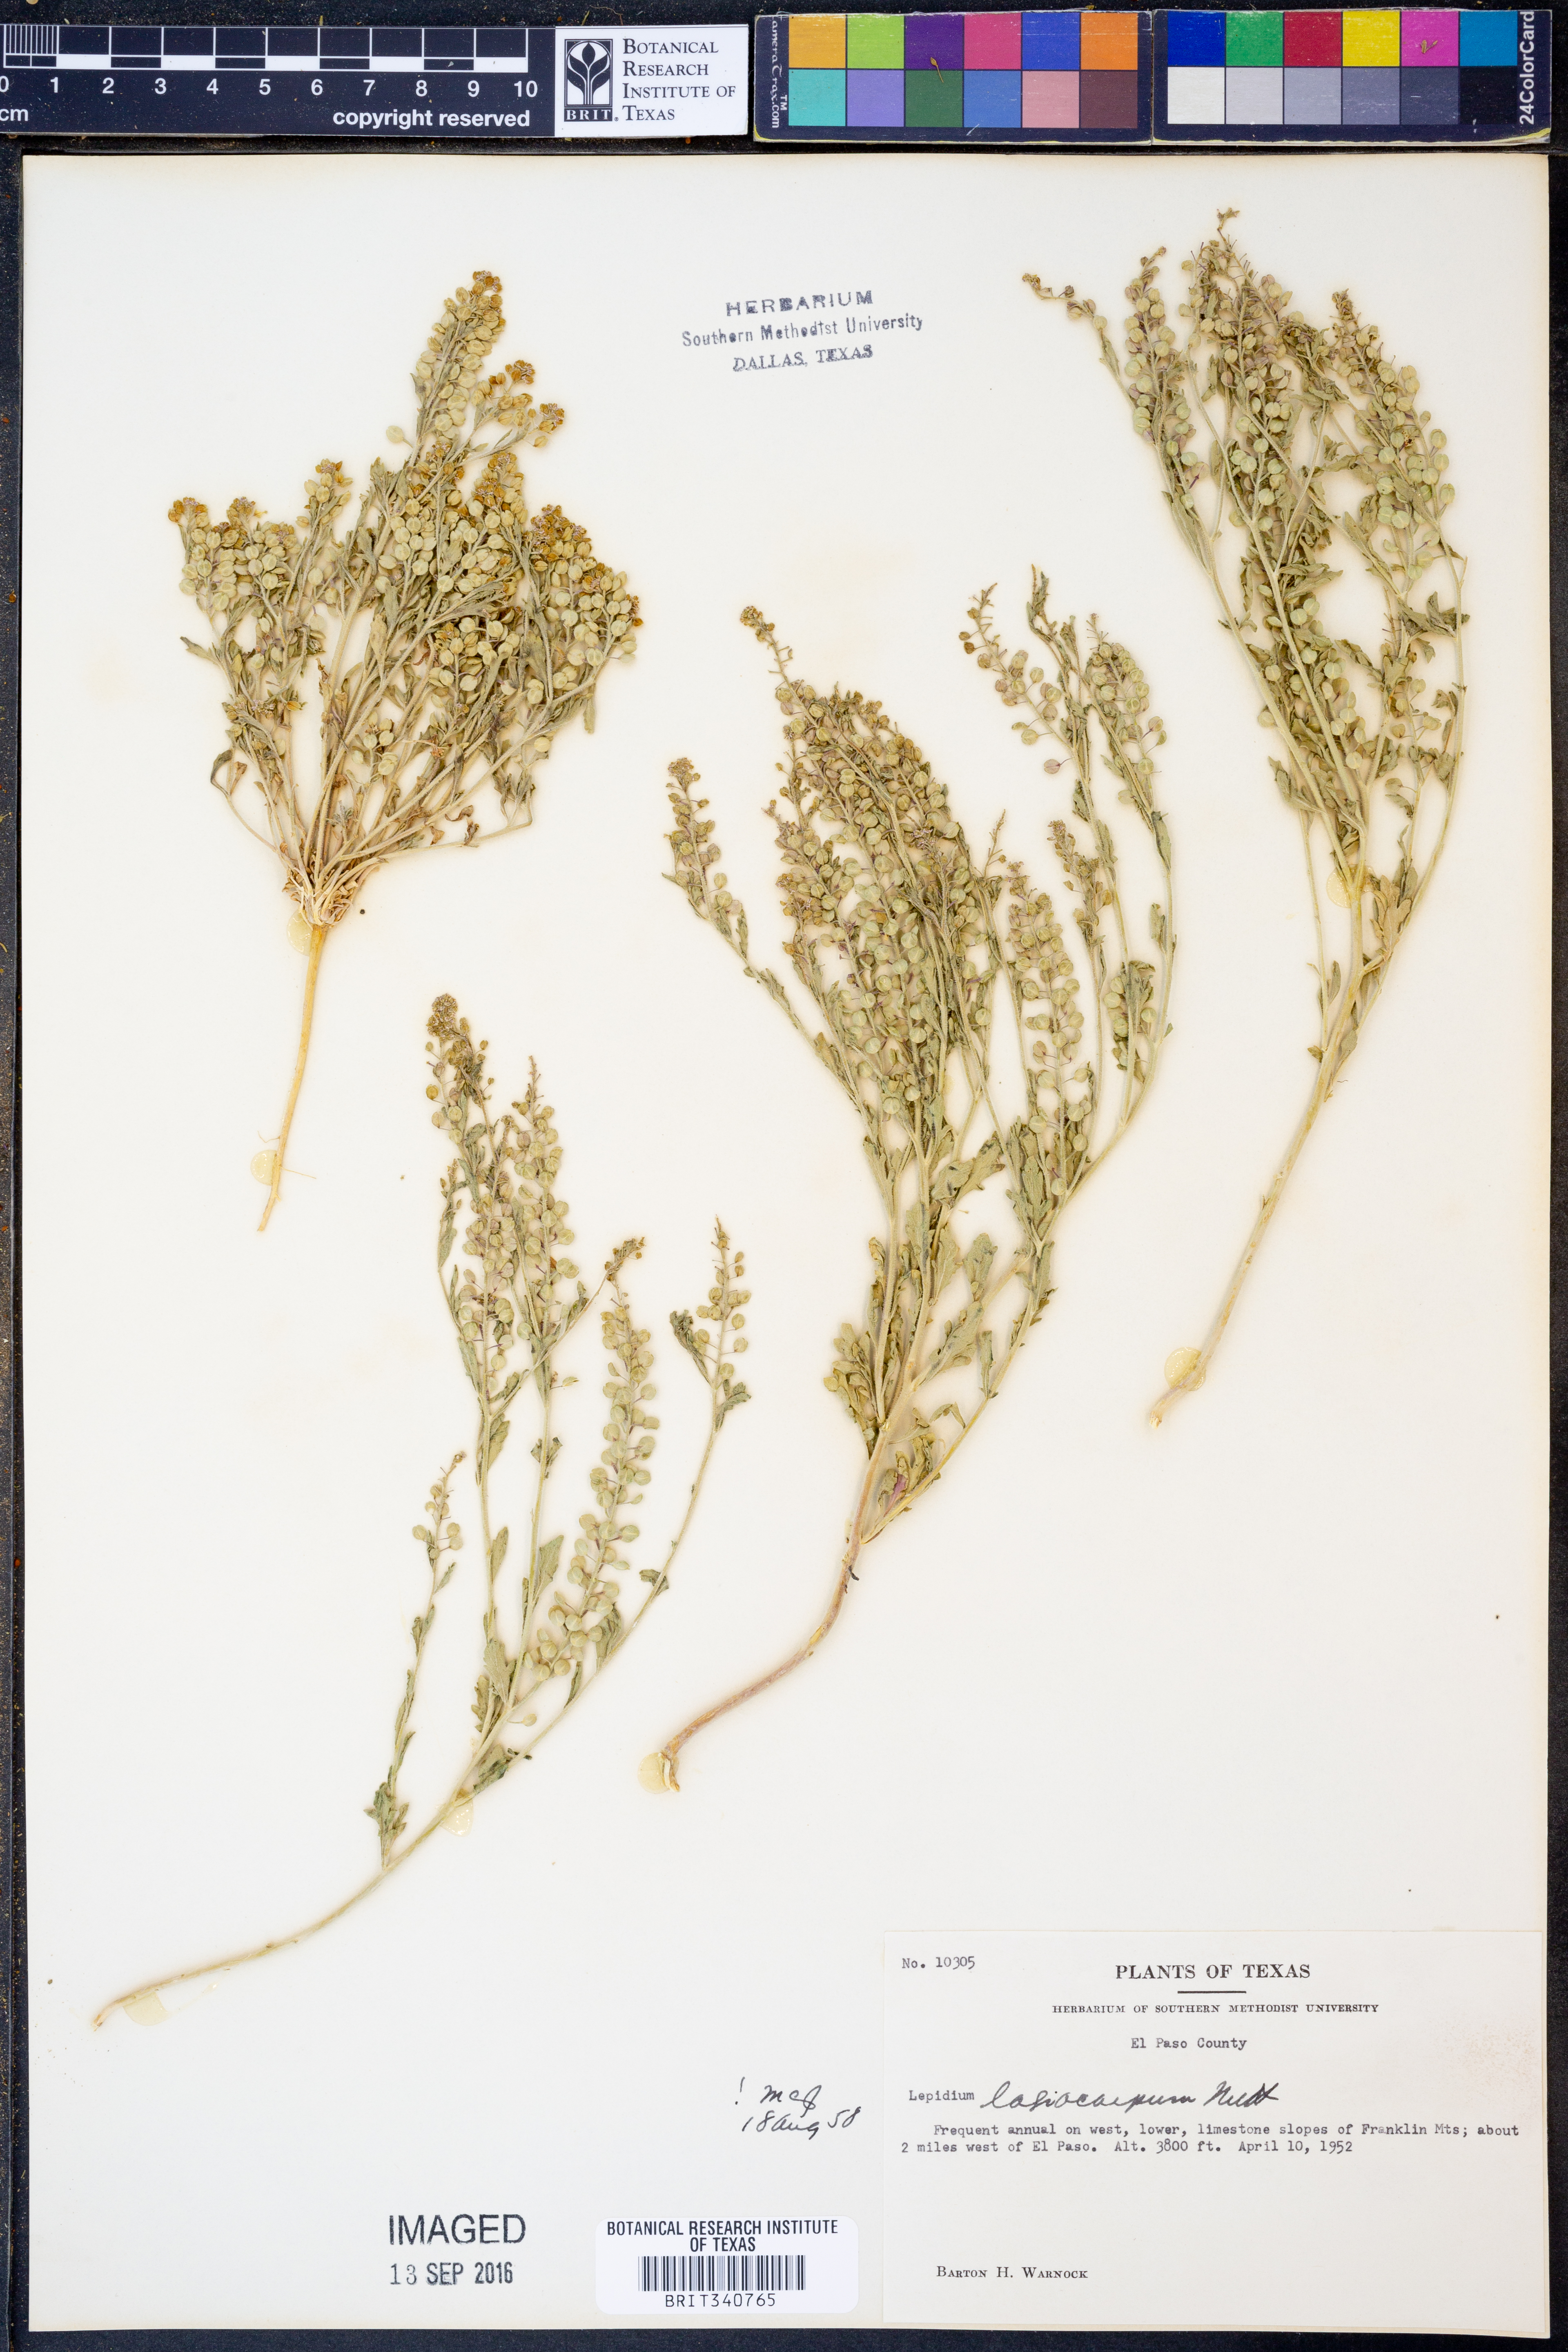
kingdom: Plantae
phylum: Tracheophyta
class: Magnoliopsida
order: Brassicales
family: Brassicaceae
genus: Lepidium
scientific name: Lepidium lasiocarpum
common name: Hairy-pod pepperwort
